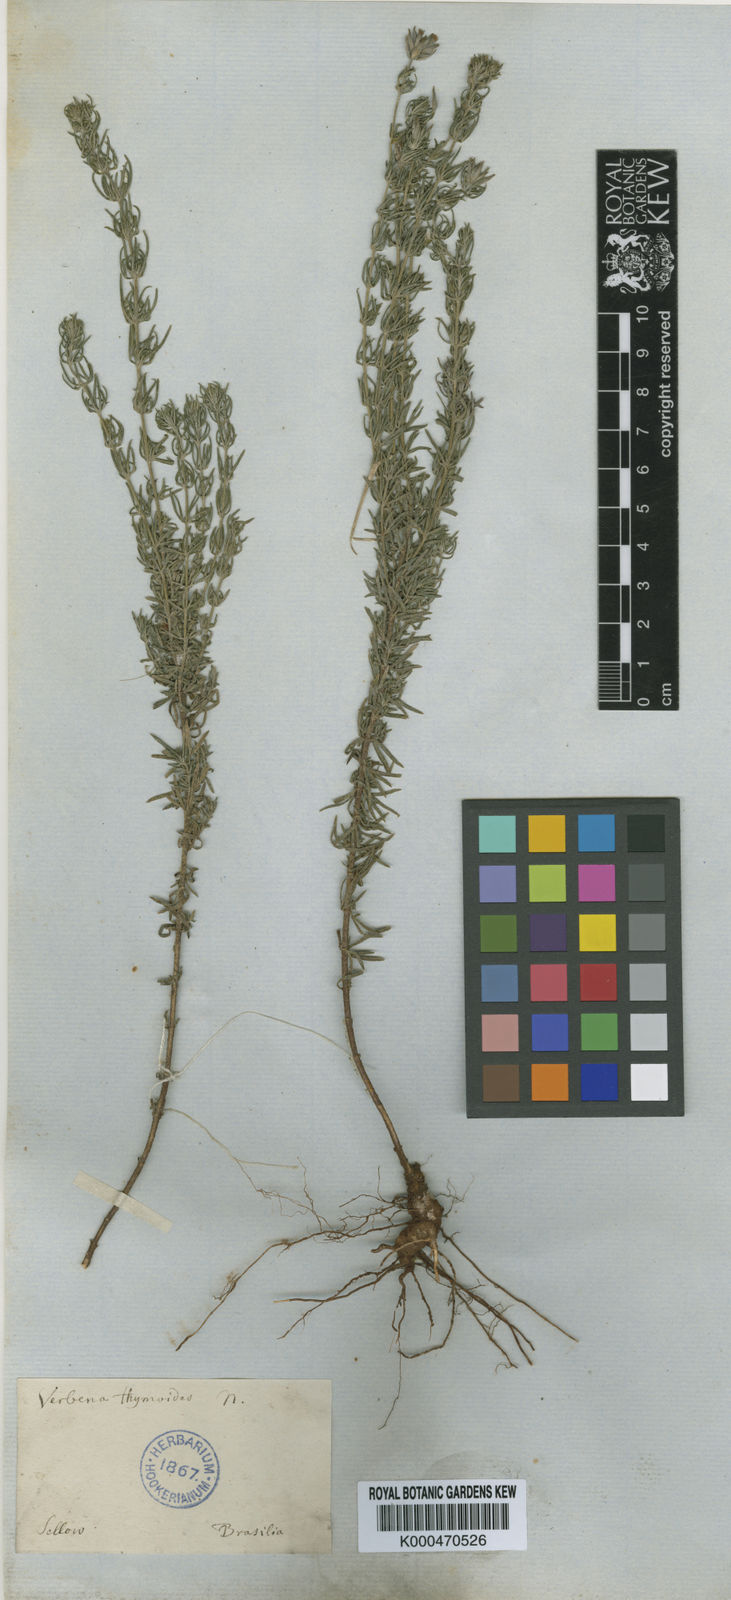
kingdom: Plantae
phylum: Tracheophyta
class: Magnoliopsida
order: Lamiales
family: Verbenaceae
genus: Verbena
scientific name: Verbena thymoides
